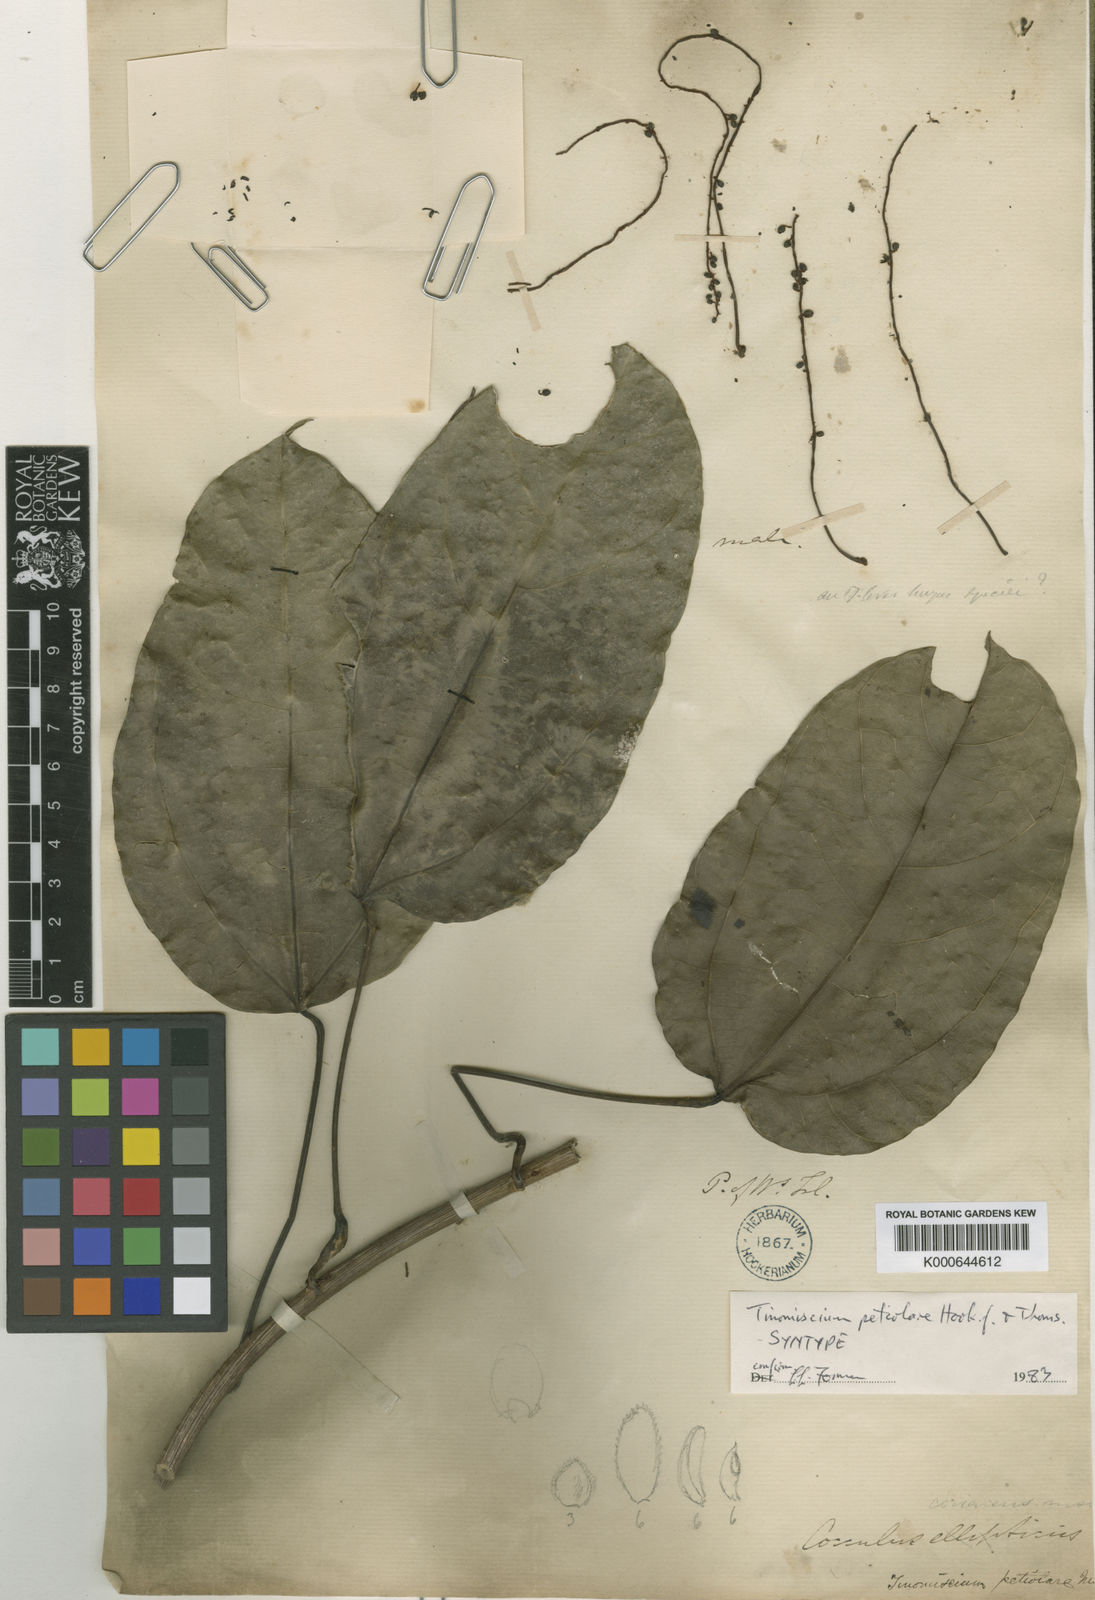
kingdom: Plantae
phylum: Tracheophyta
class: Magnoliopsida
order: Ranunculales
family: Menispermaceae
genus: Tinomiscium
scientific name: Tinomiscium petiolare
